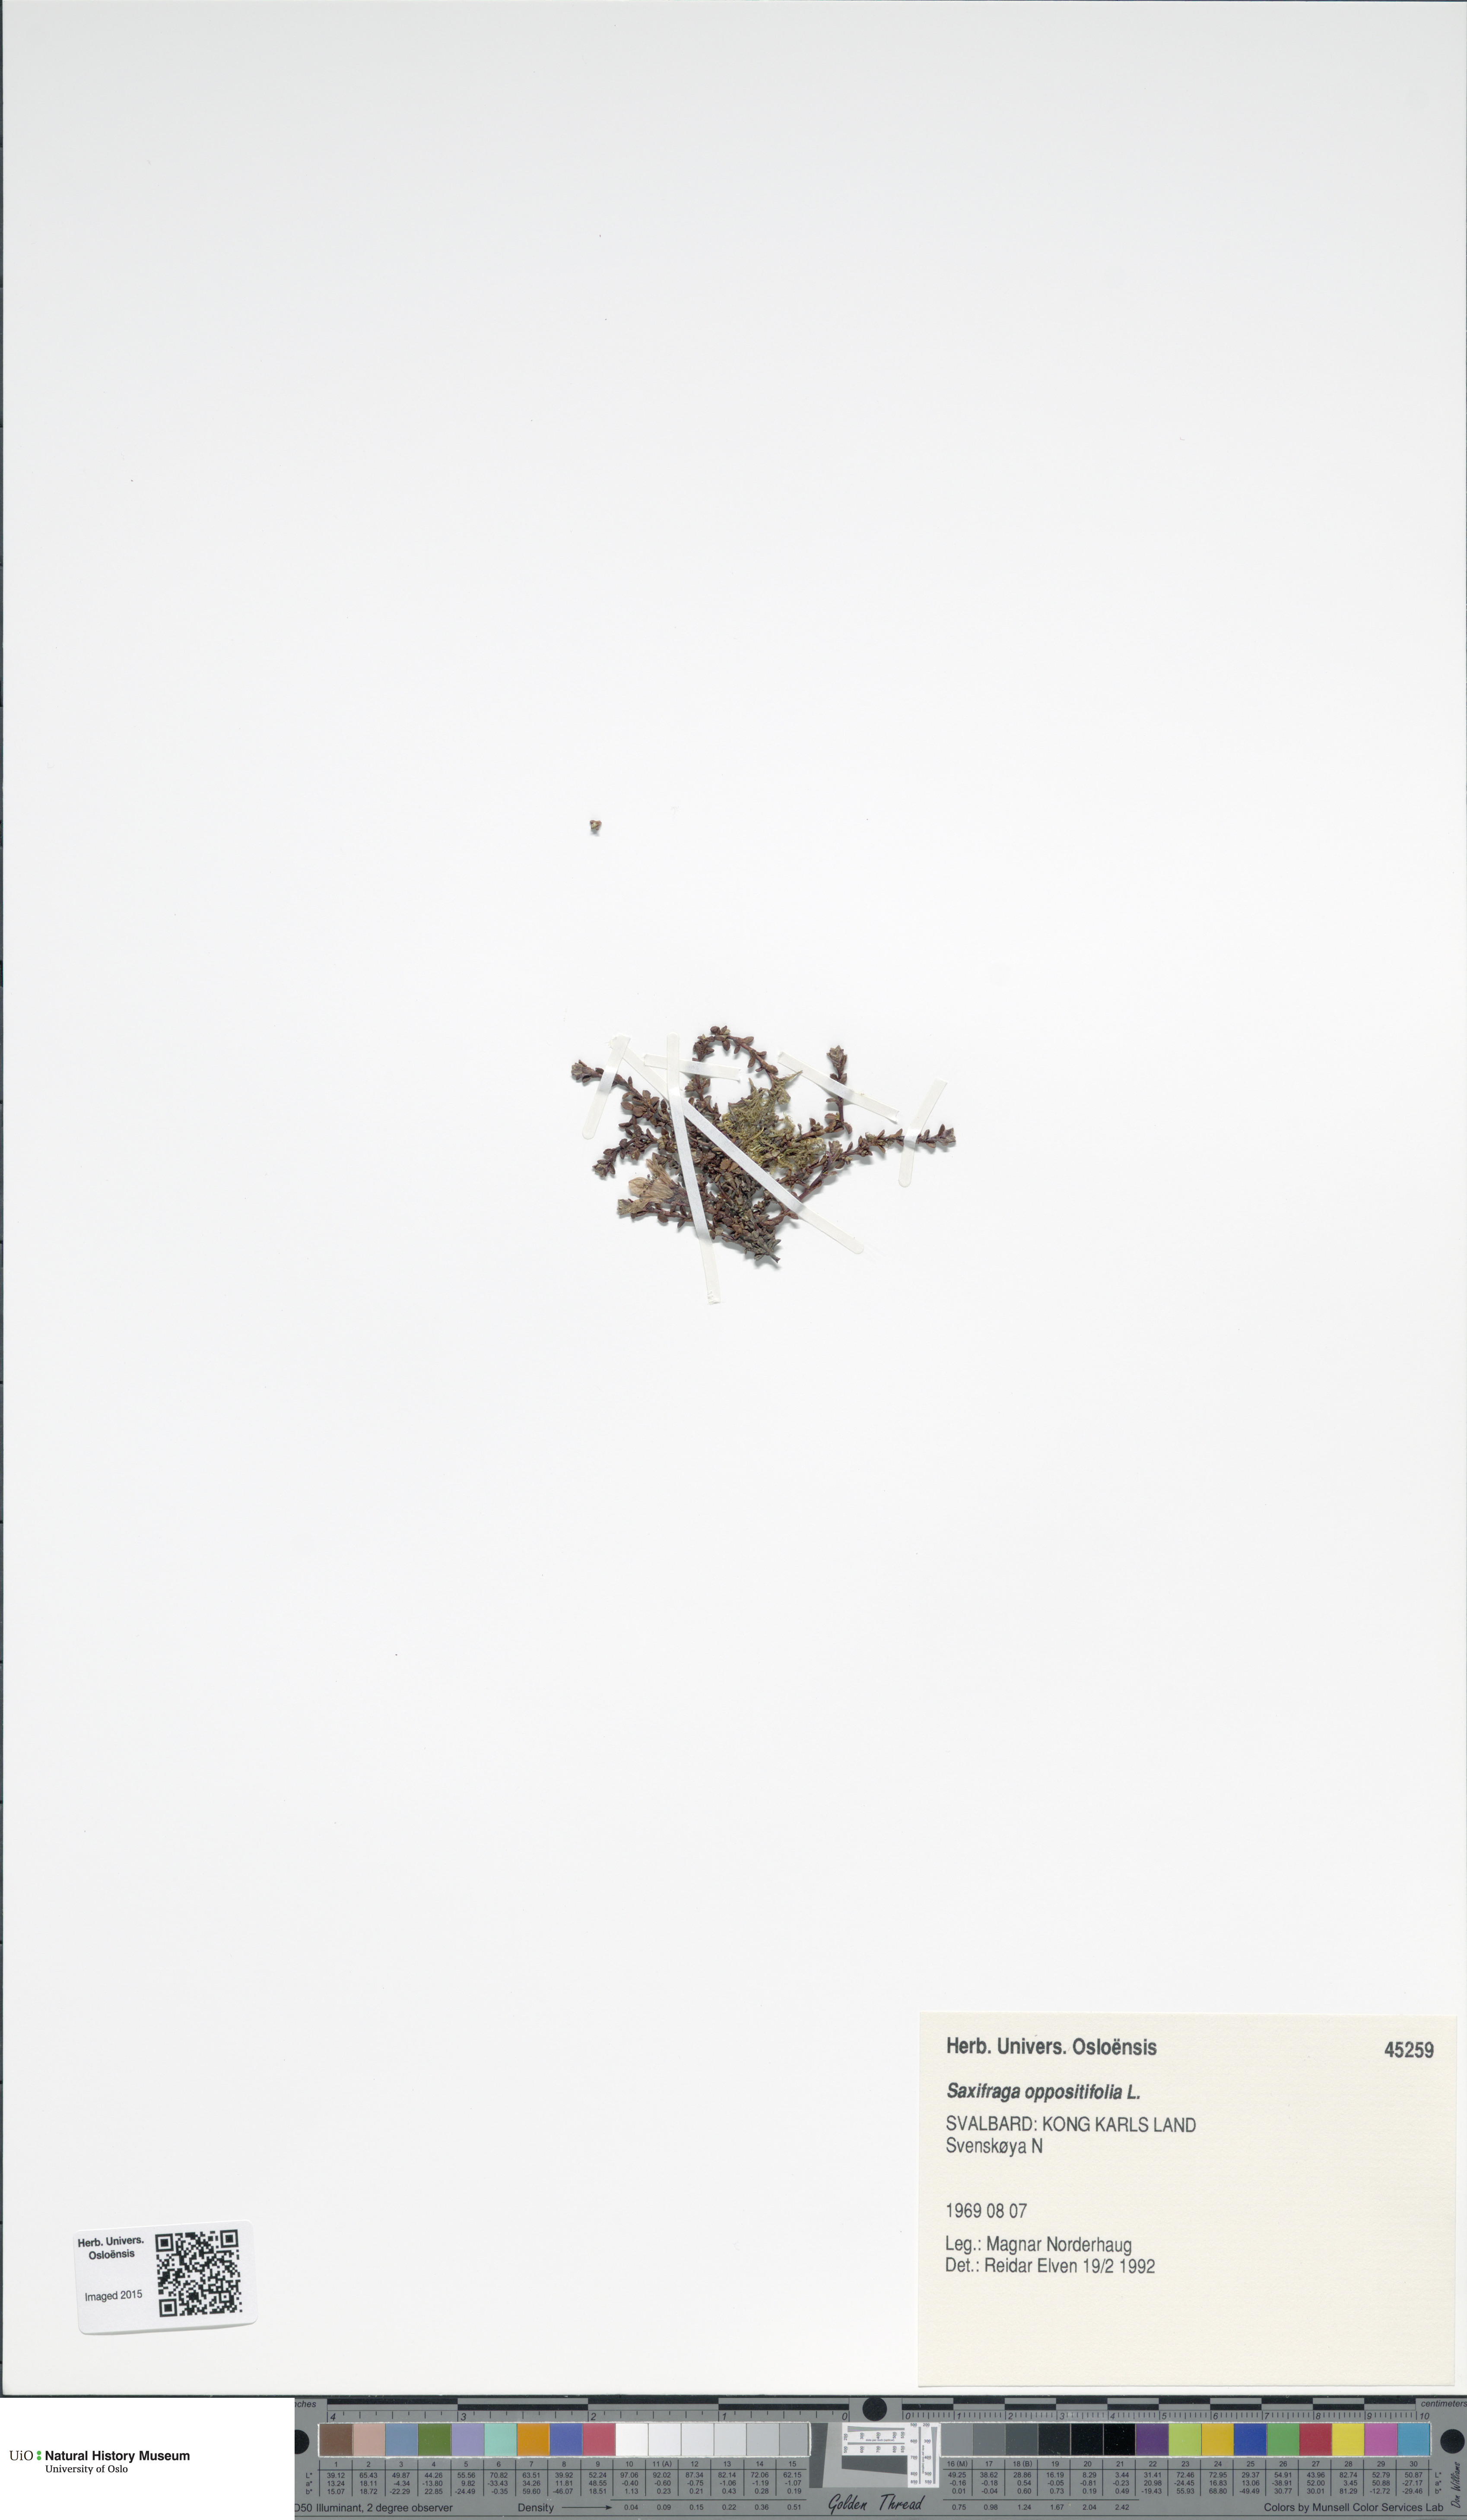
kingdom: Plantae
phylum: Tracheophyta
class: Magnoliopsida
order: Saxifragales
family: Saxifragaceae
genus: Saxifraga
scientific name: Saxifraga oppositifolia
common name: Purple saxifrage
